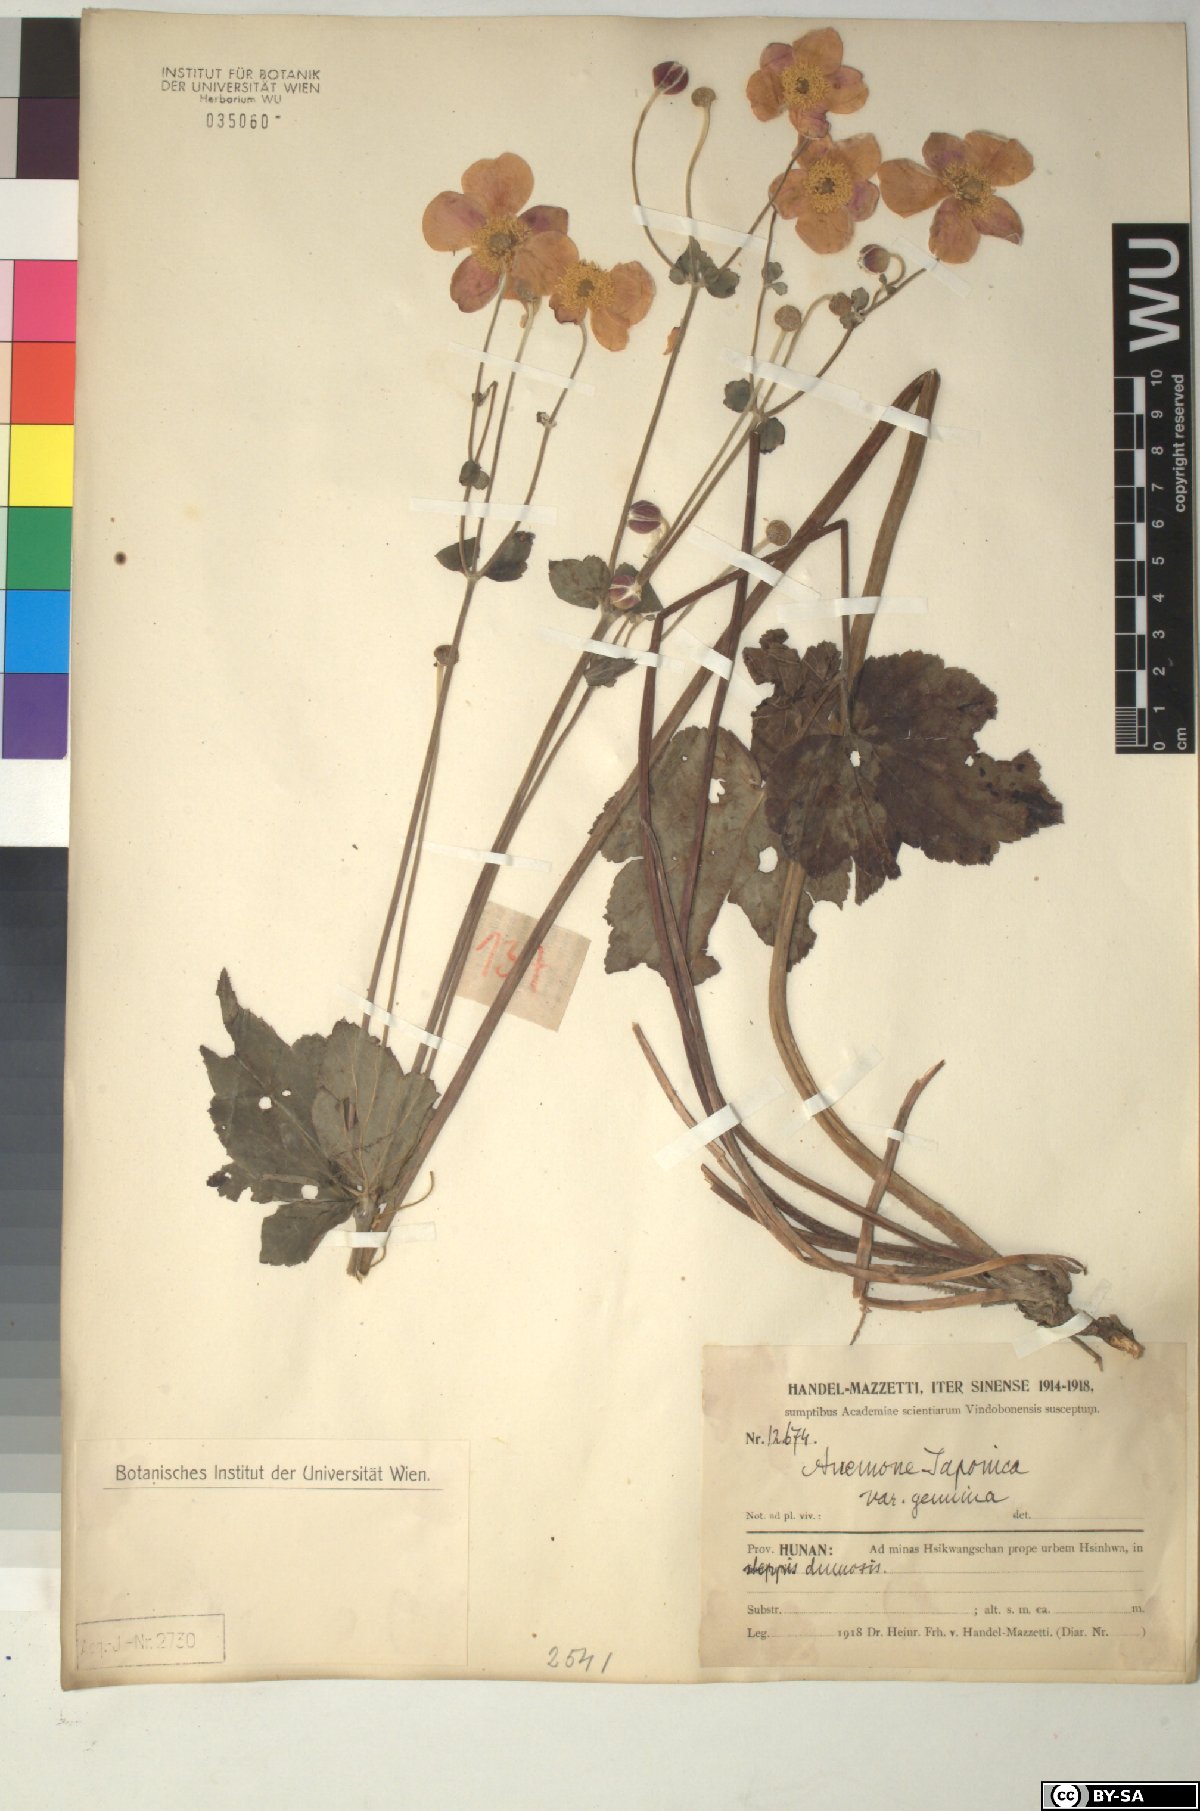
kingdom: Plantae
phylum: Tracheophyta
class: Magnoliopsida
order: Ranunculales
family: Ranunculaceae
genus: Eriocapitella
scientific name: Eriocapitella japonica
